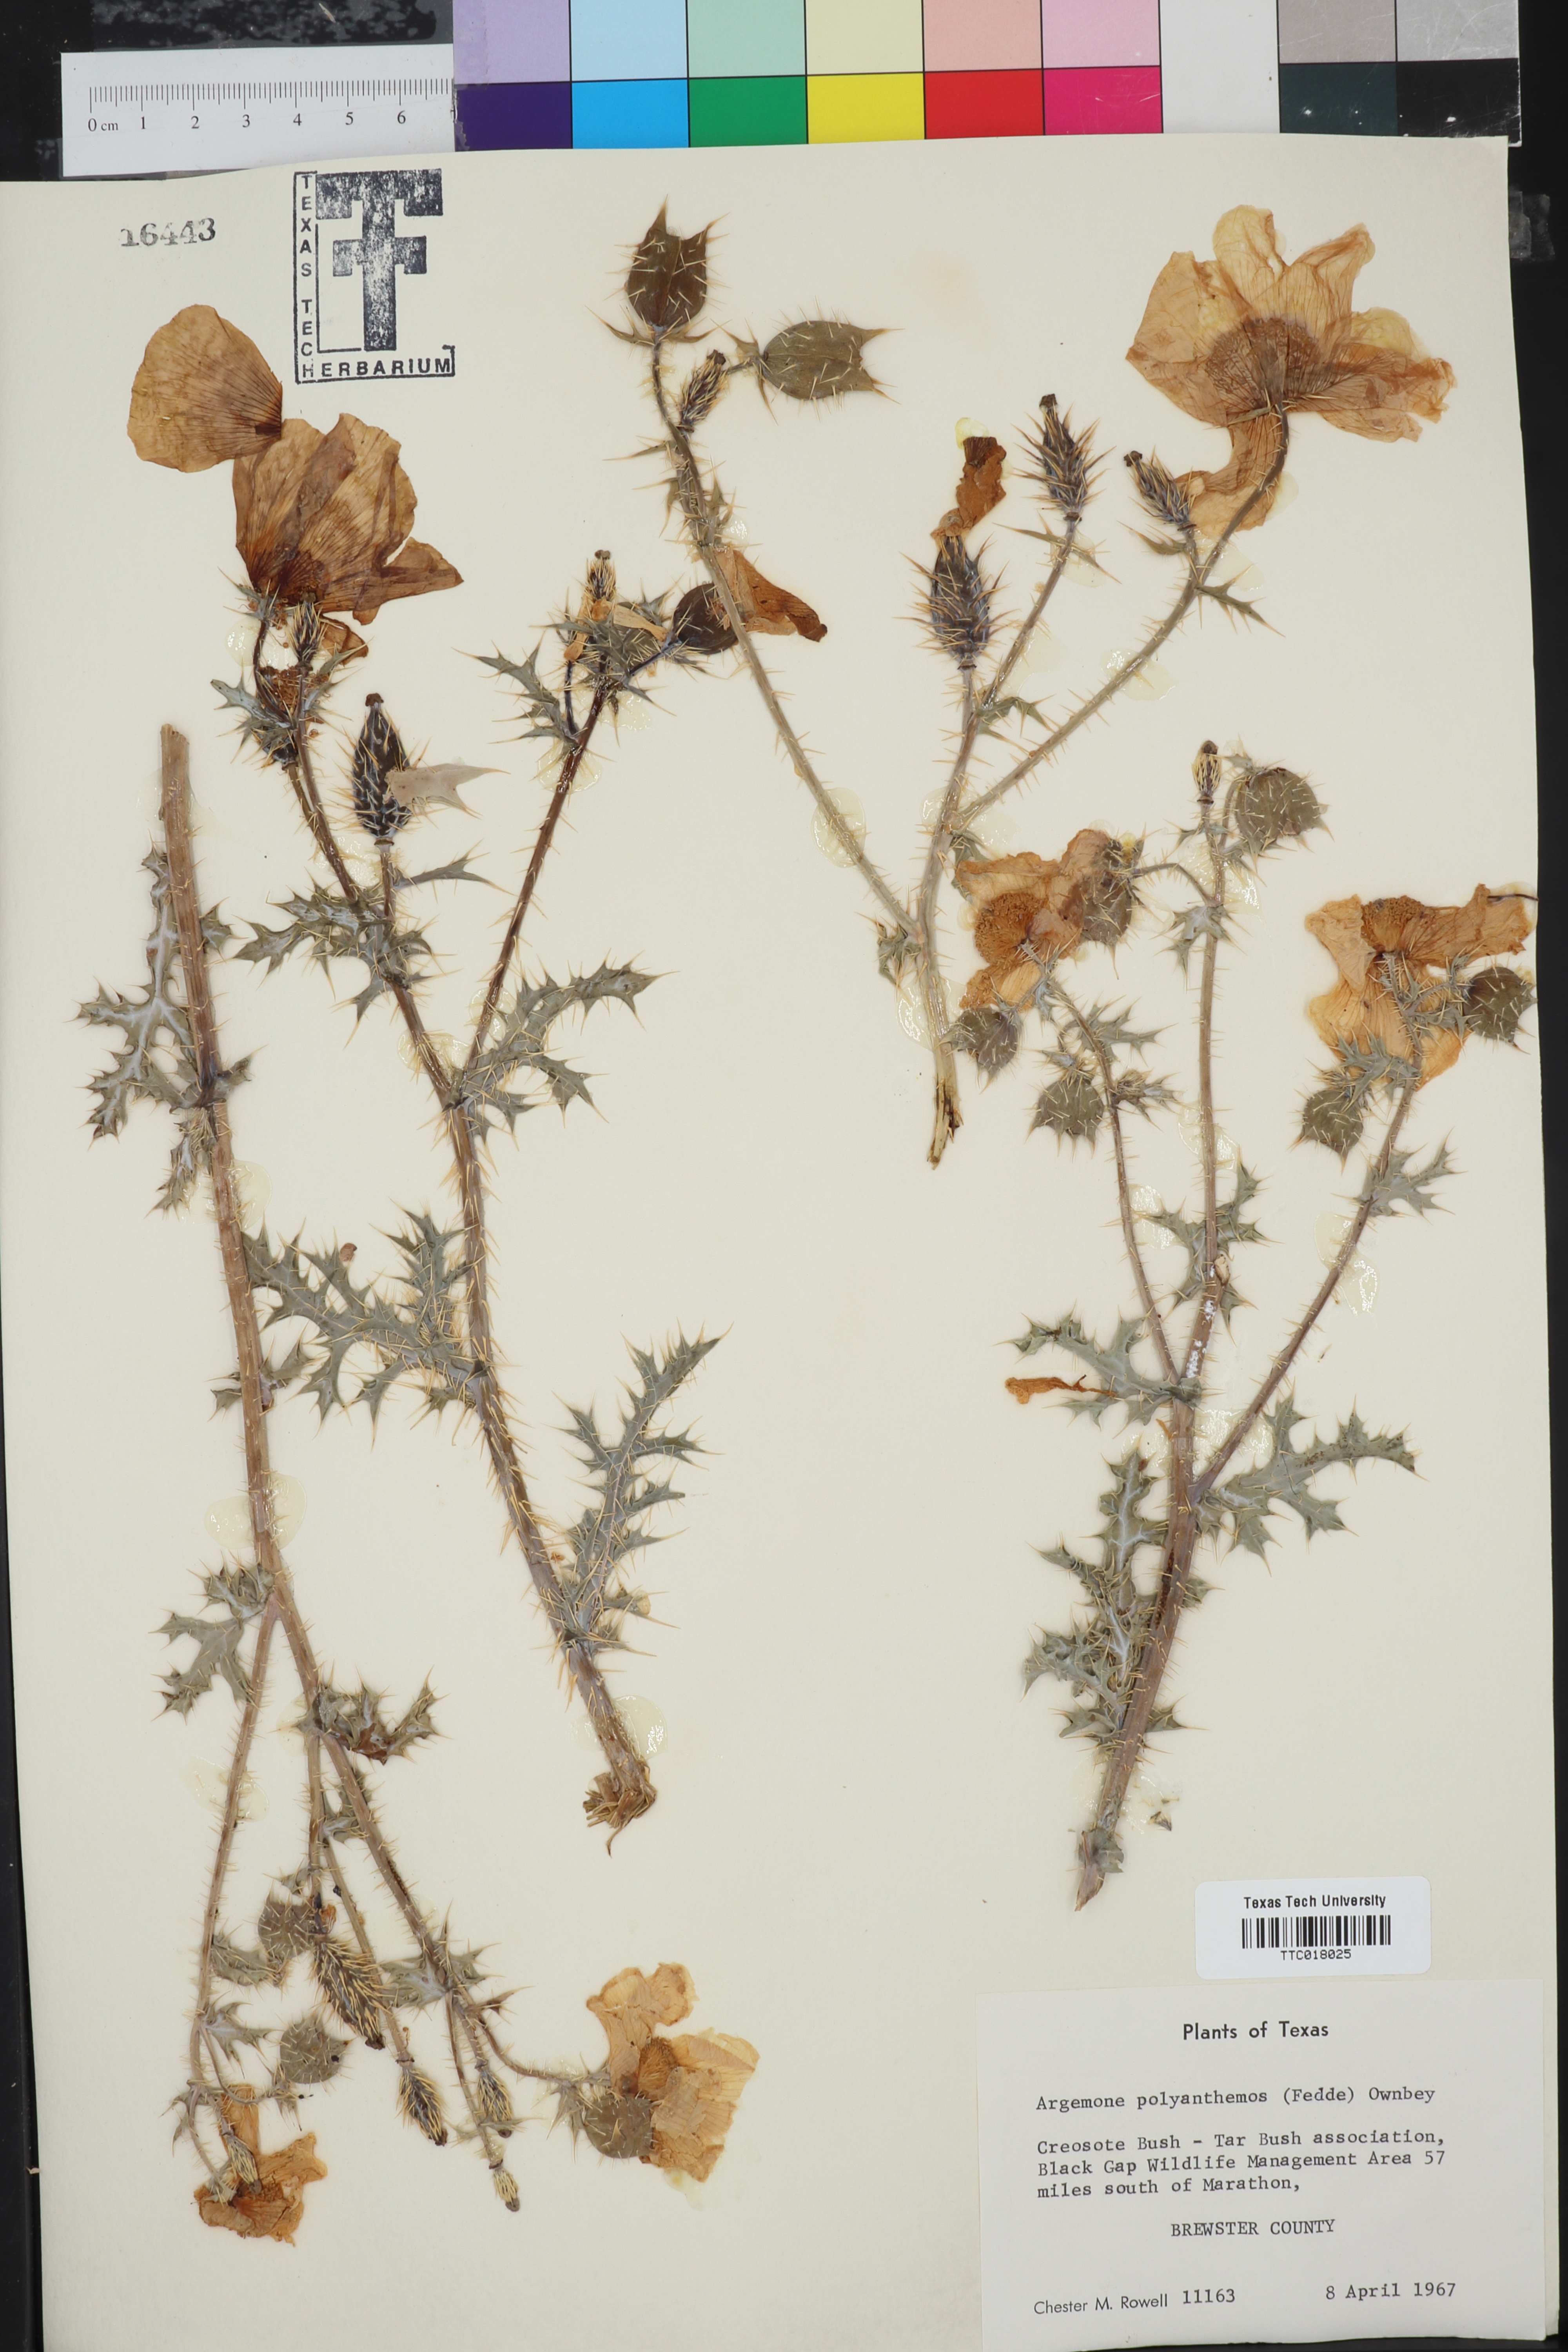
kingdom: Plantae
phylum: Tracheophyta
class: Magnoliopsida
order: Ranunculales
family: Papaveraceae
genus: Argemone
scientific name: Argemone polyanthemos
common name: Plains prickly-poppy
